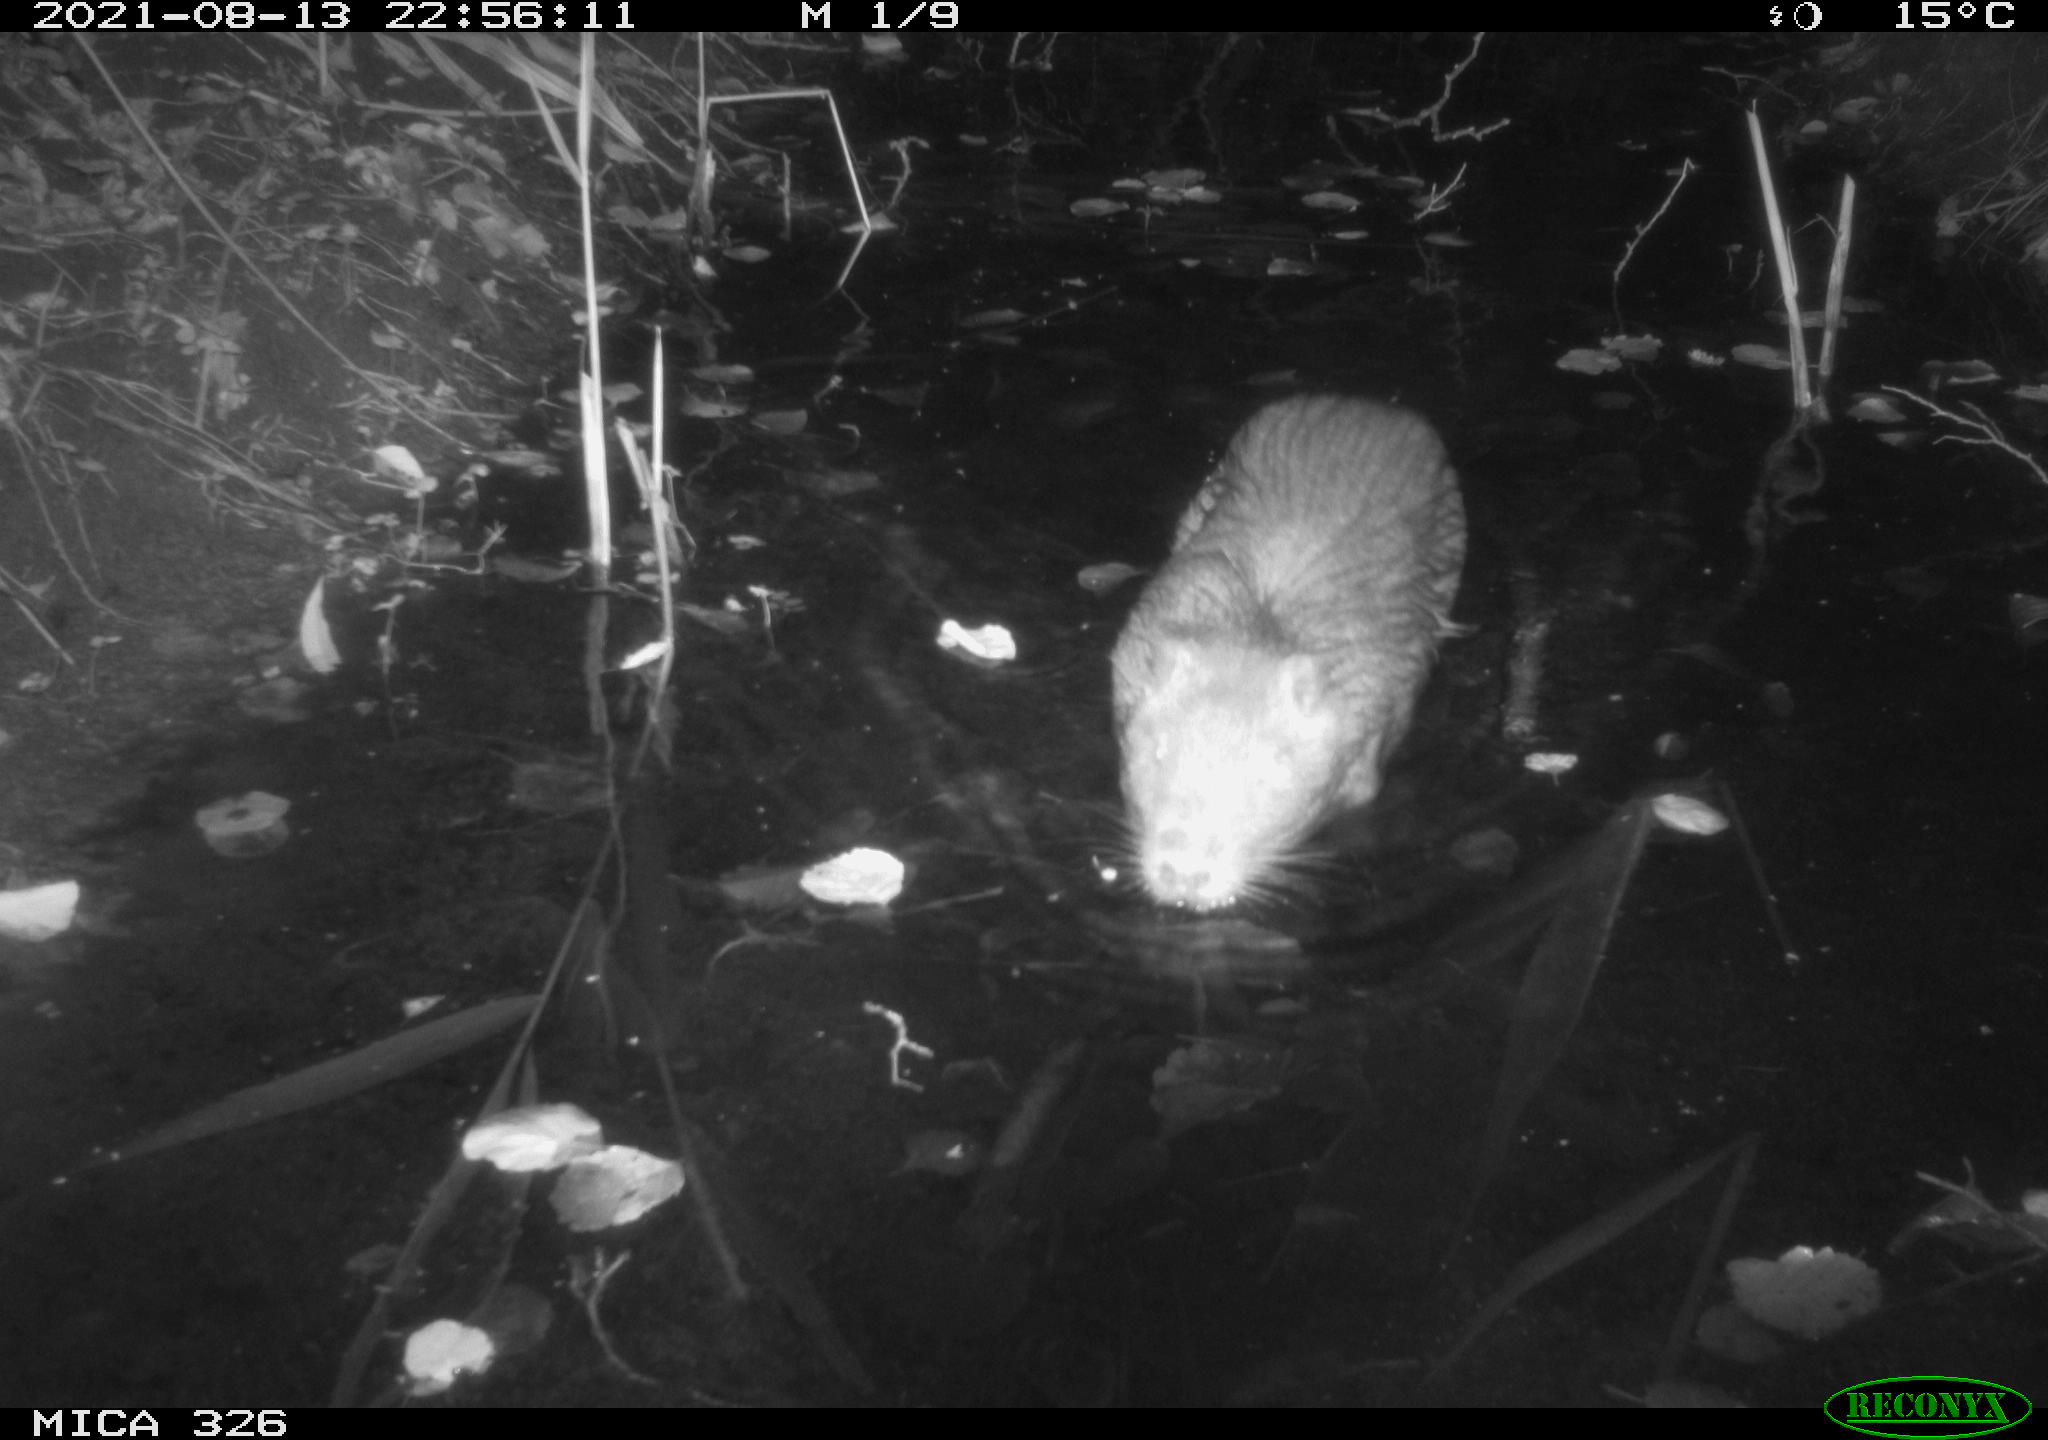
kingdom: Animalia
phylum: Chordata
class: Mammalia
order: Rodentia
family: Myocastoridae
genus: Myocastor
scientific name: Myocastor coypus
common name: Coypu
